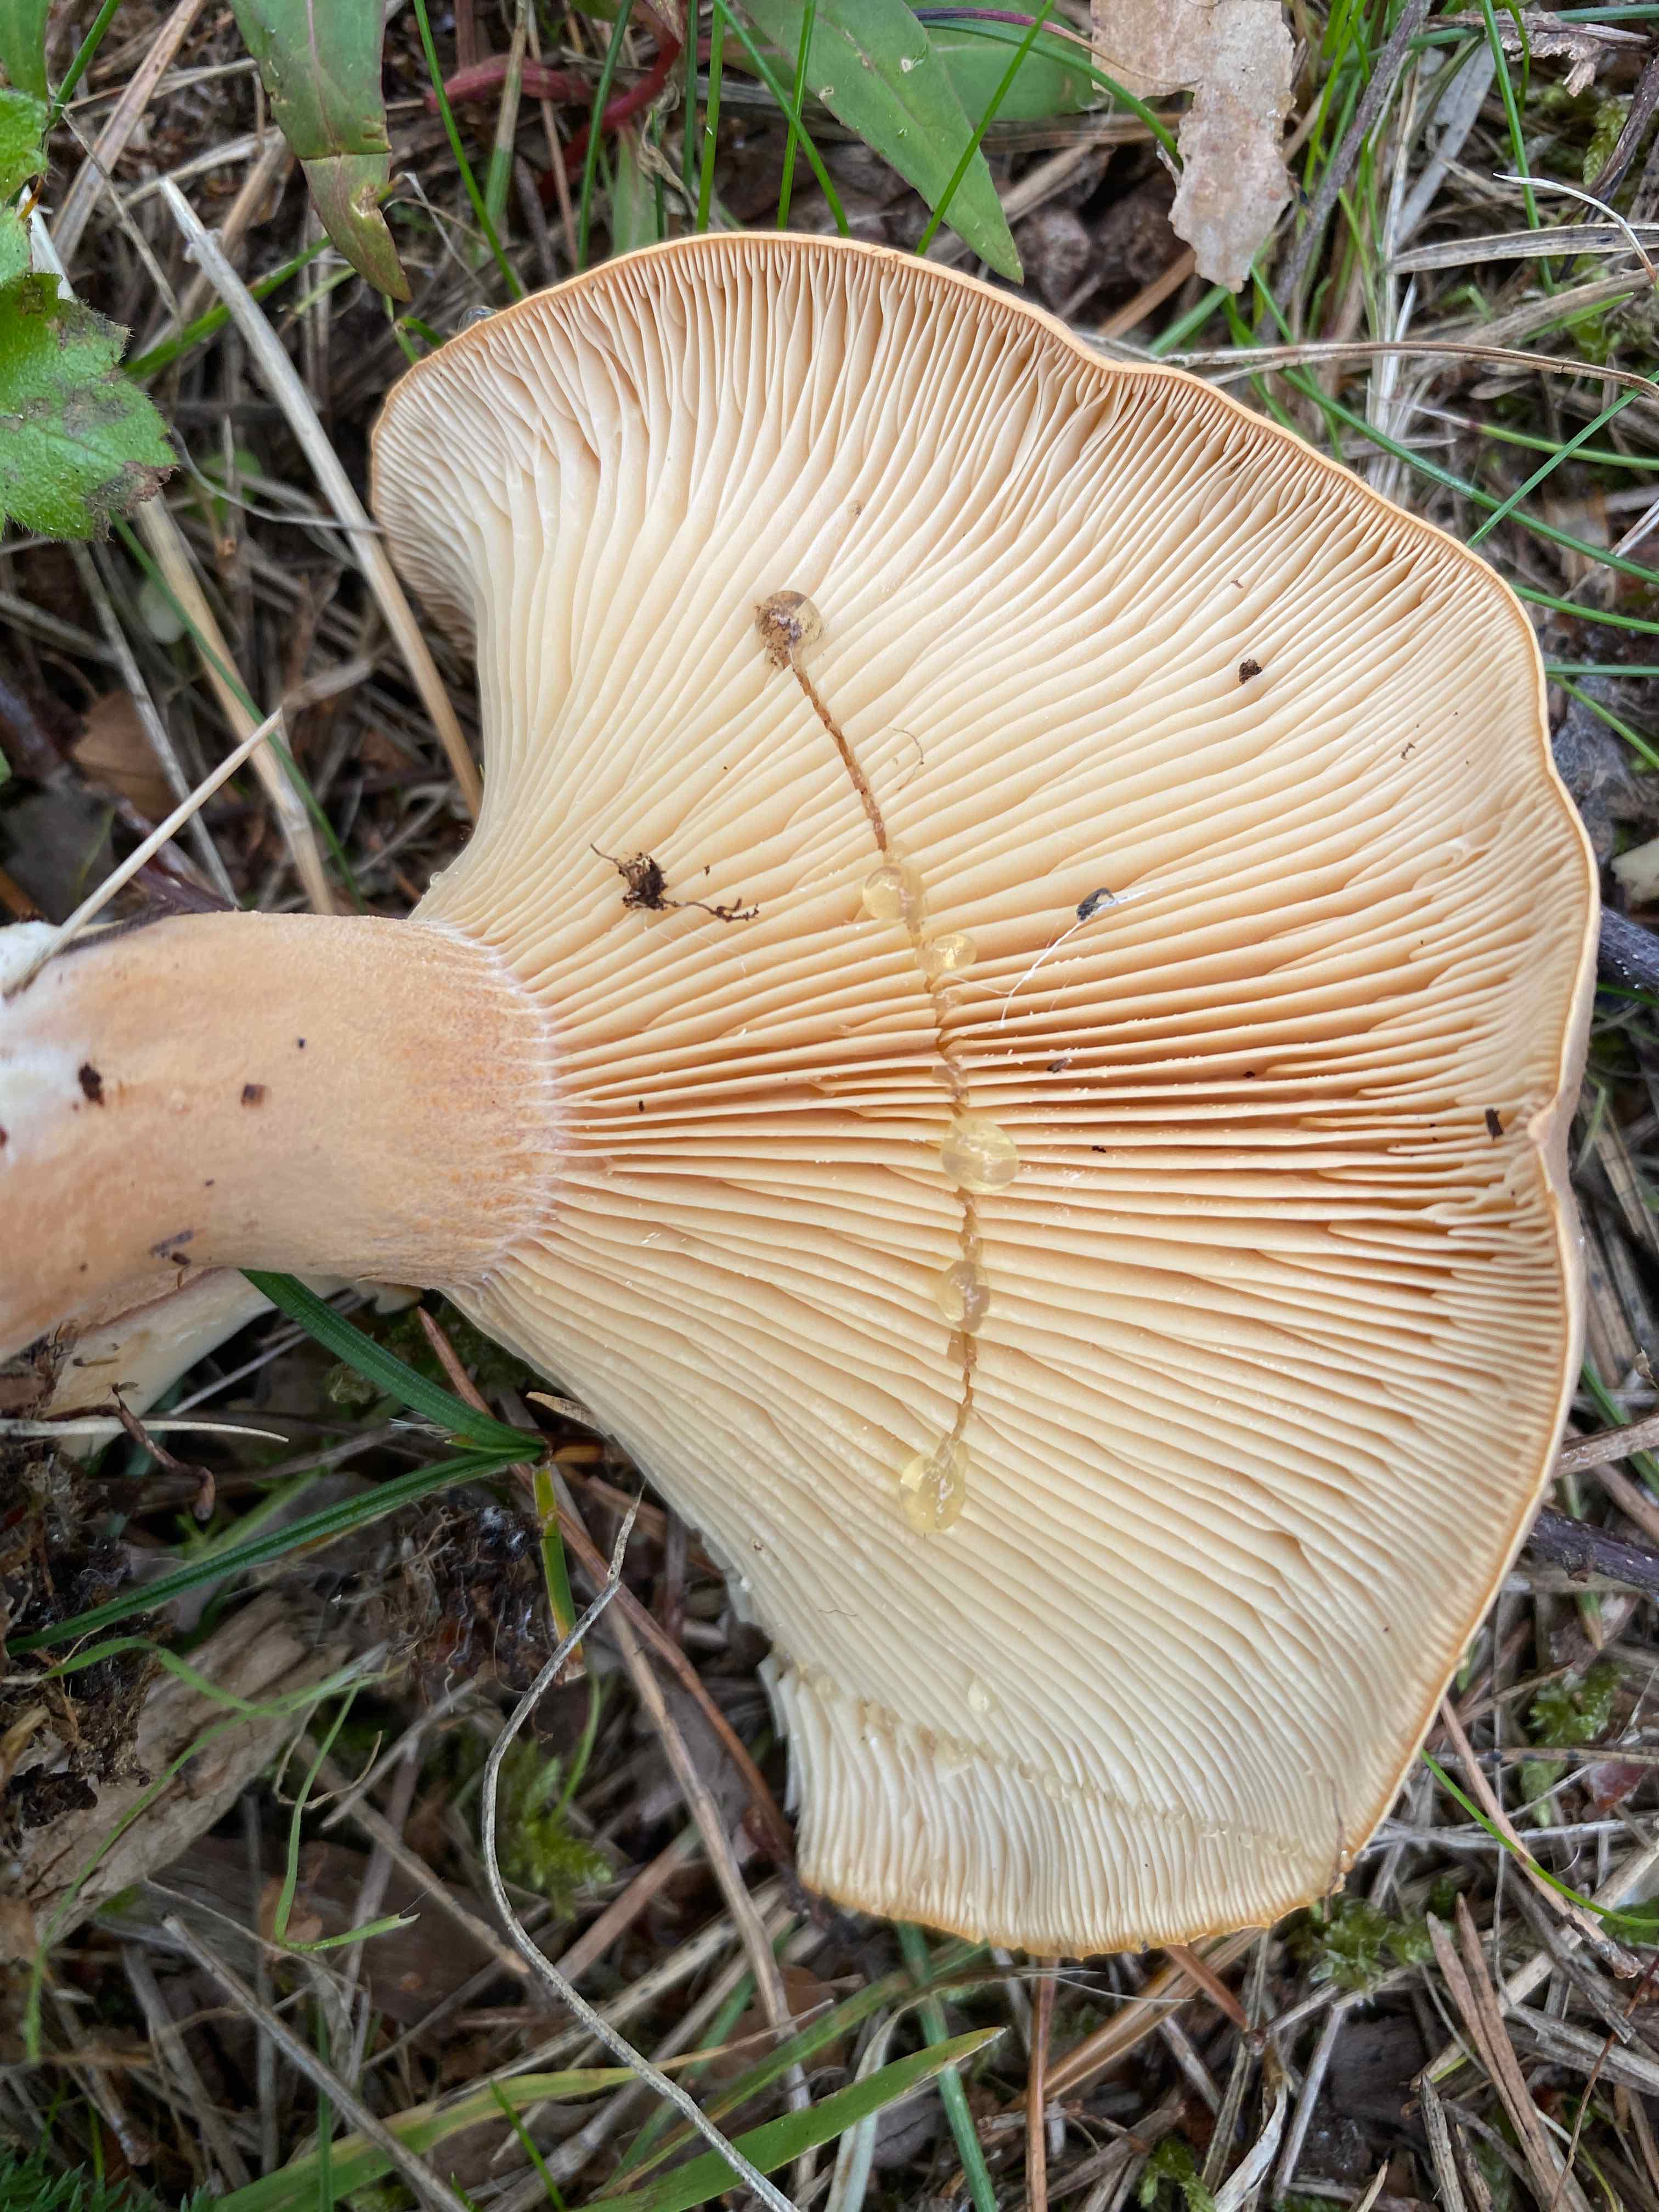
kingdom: Fungi
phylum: Basidiomycota
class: Agaricomycetes
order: Russulales
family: Russulaceae
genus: Lactarius
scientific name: Lactarius helvus
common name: mose-mælkehat
